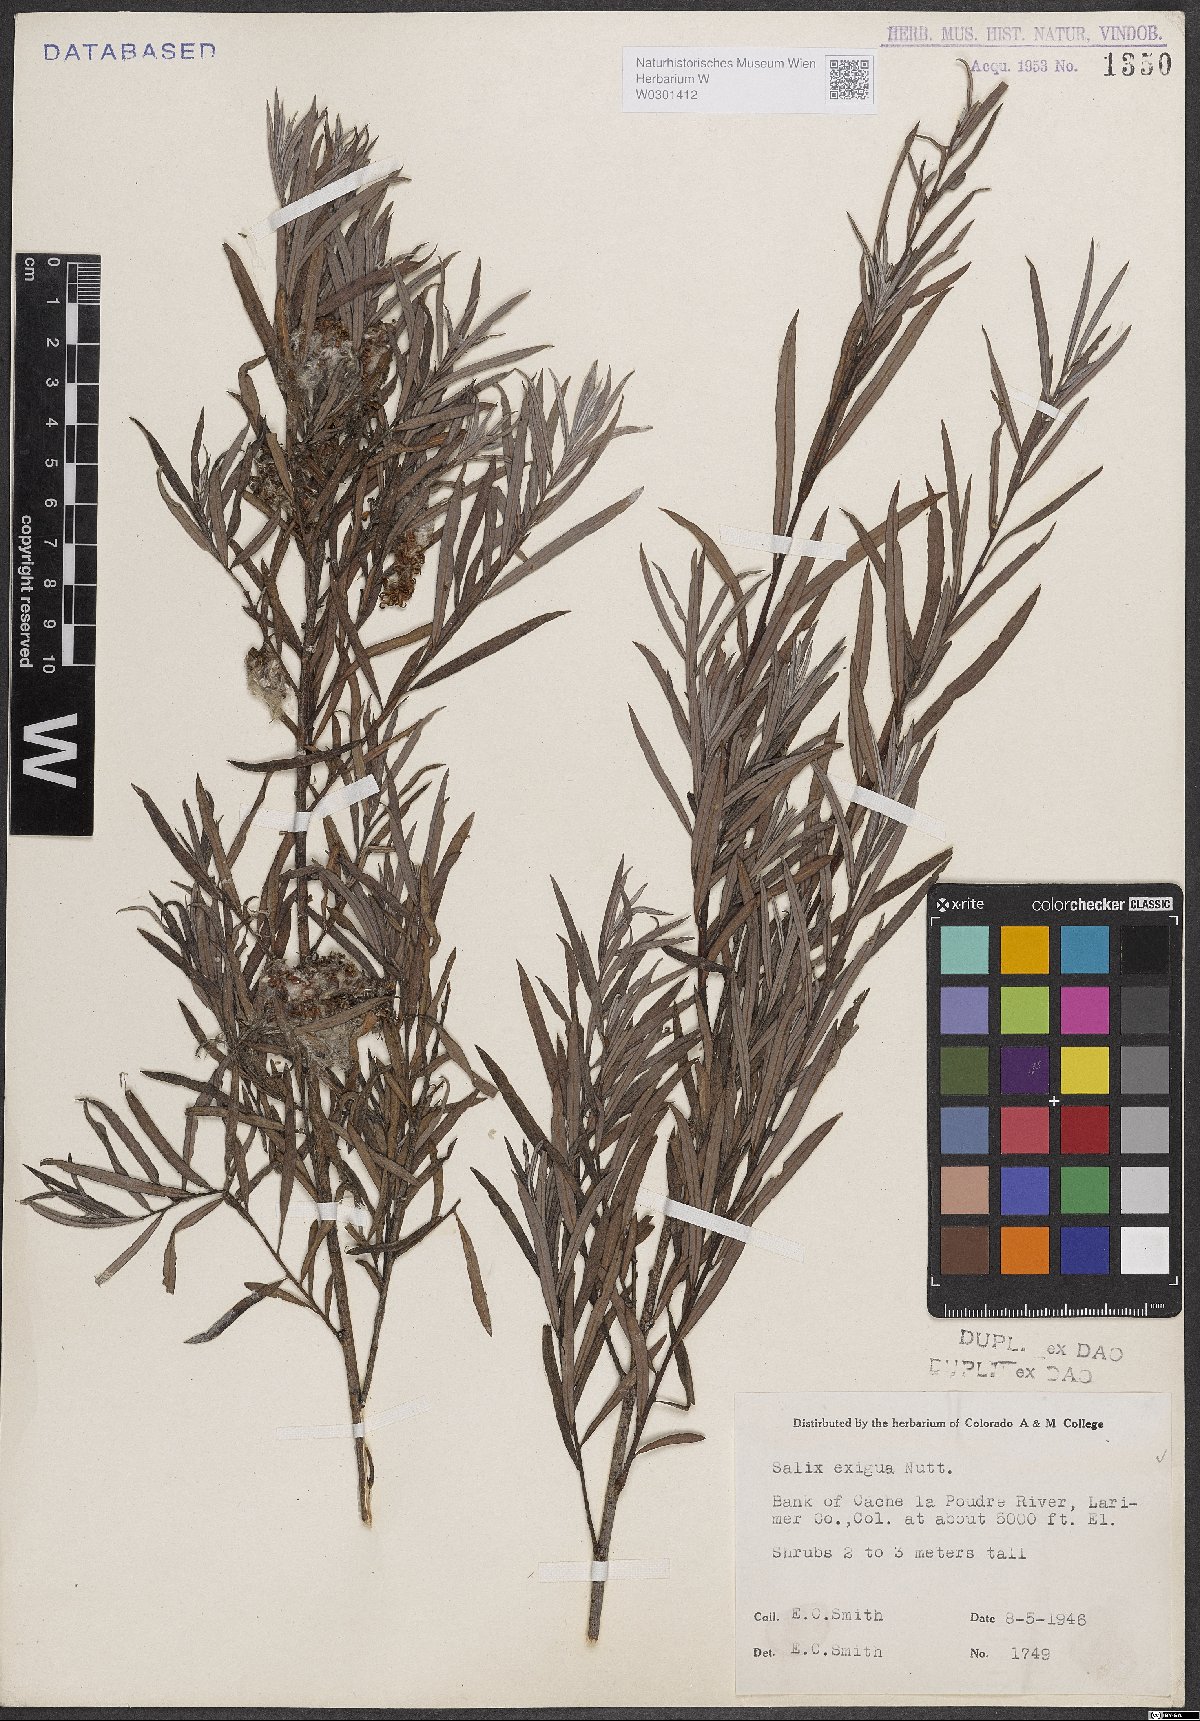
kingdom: Plantae
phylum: Tracheophyta
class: Magnoliopsida
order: Malpighiales
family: Salicaceae
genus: Salix
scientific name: Salix exigua
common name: Coyote willow
